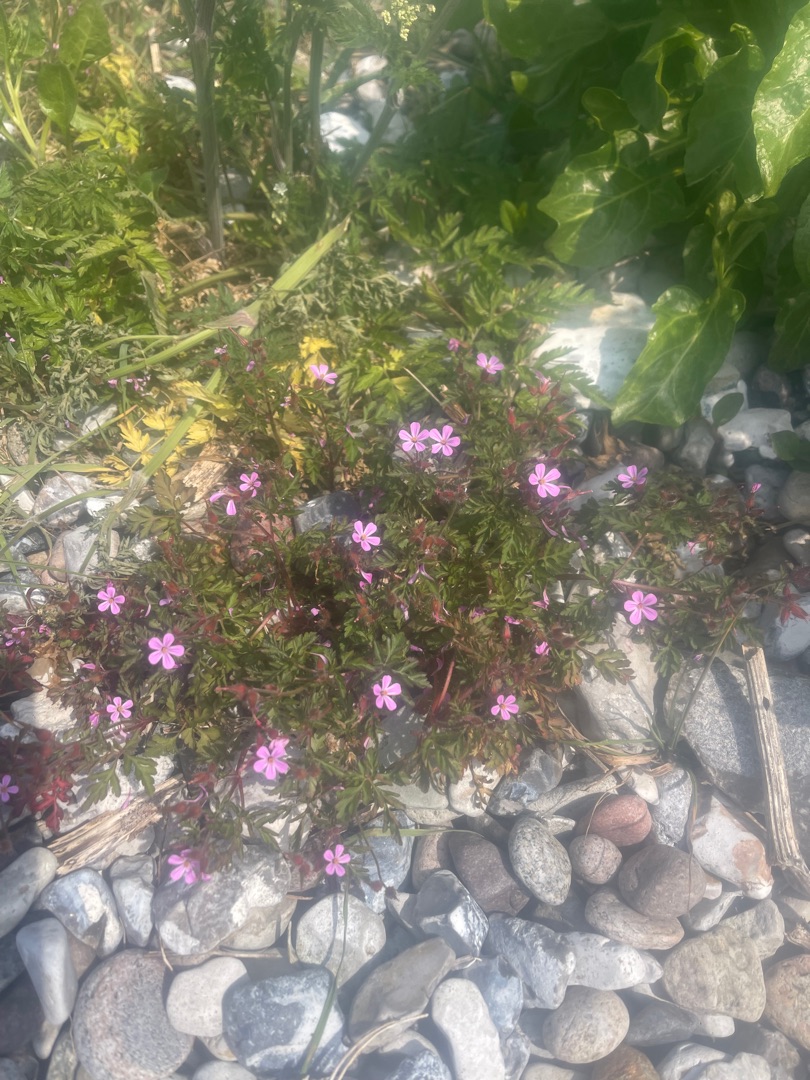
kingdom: Plantae
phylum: Tracheophyta
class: Magnoliopsida
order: Geraniales
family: Geraniaceae
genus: Geranium
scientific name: Geranium robertianum
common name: Stinkende storkenæb
